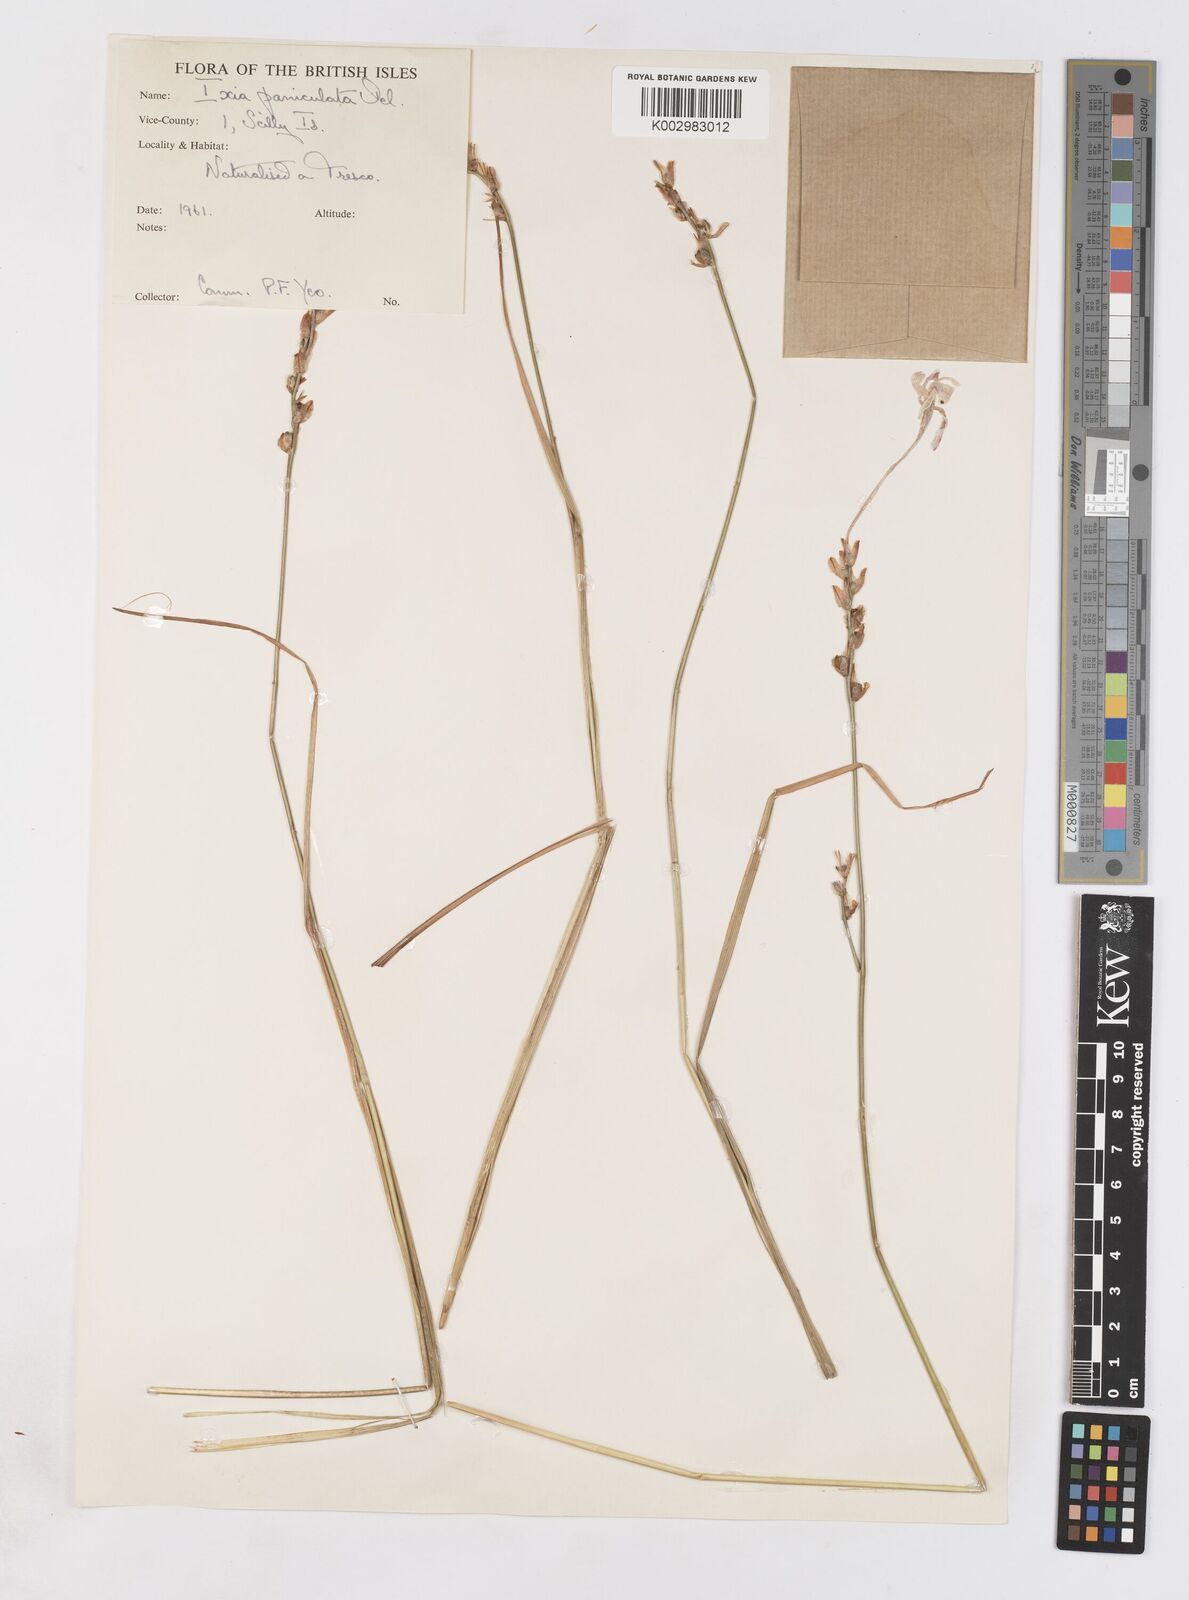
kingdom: Plantae
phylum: Tracheophyta
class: Liliopsida
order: Asparagales
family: Iridaceae
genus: Ixia
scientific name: Ixia paniculata
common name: Tubular corn-lily
